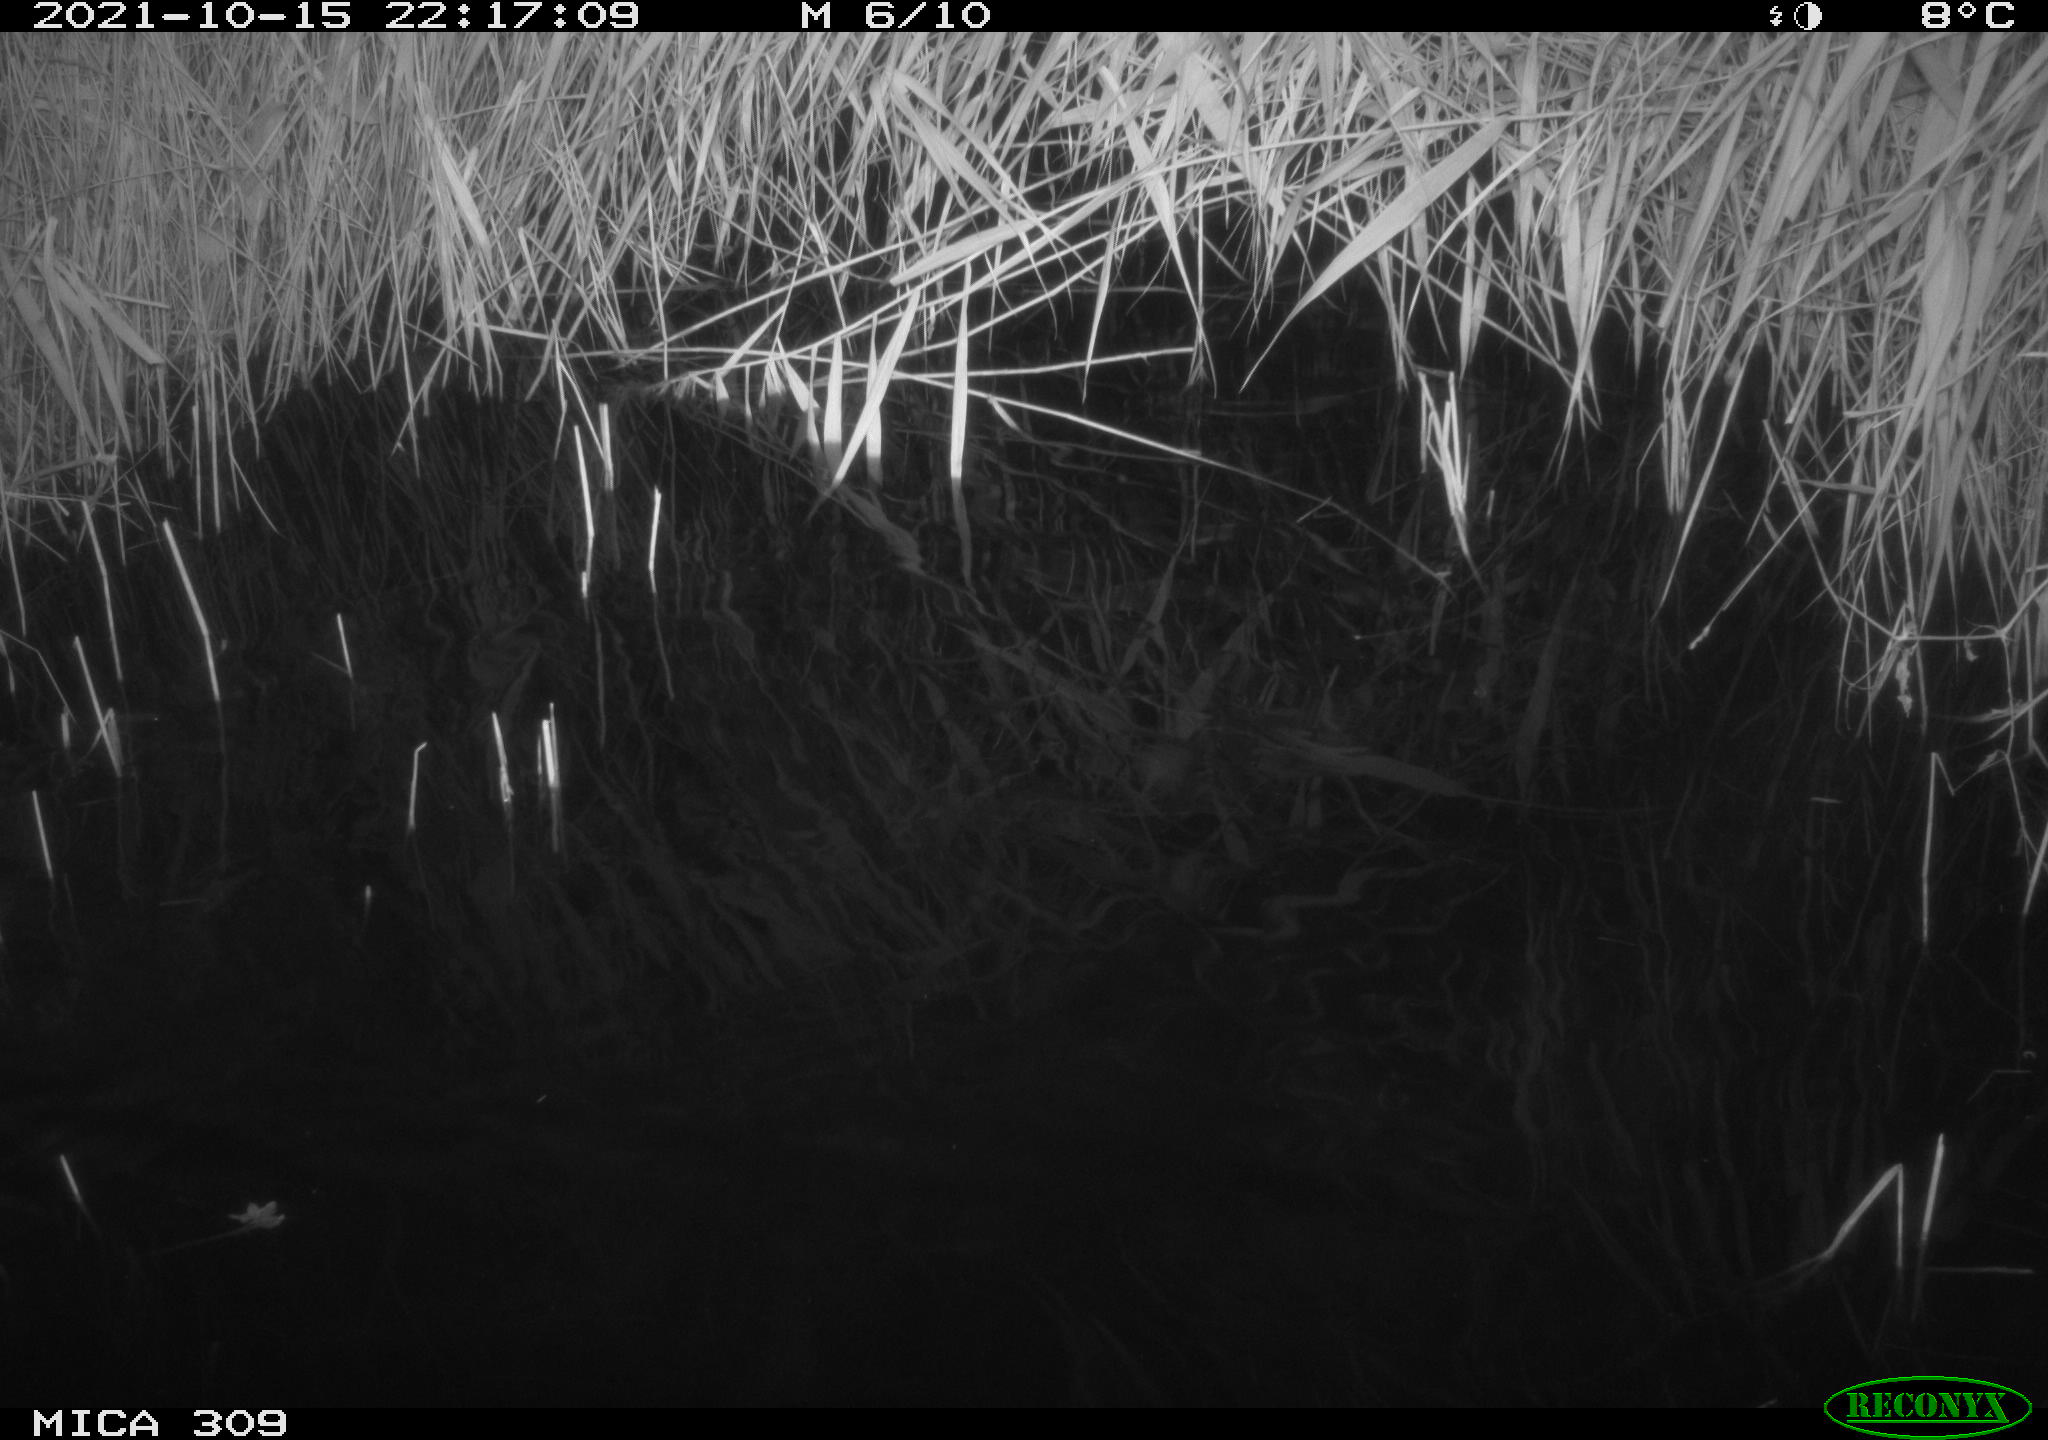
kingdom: Animalia
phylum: Chordata
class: Mammalia
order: Rodentia
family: Muridae
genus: Rattus
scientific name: Rattus norvegicus
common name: Brown rat
